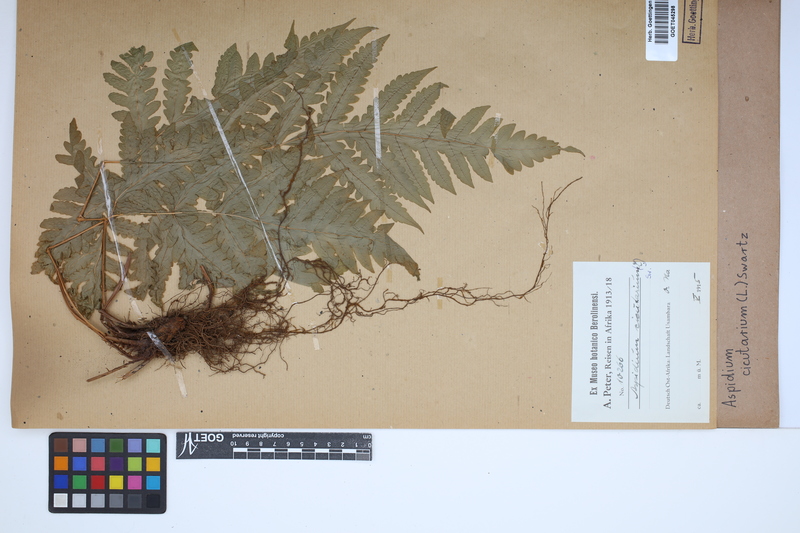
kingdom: Plantae
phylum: Tracheophyta
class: Polypodiopsida
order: Polypodiales
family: Tectariaceae
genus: Tectaria
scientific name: Tectaria cicutaria
